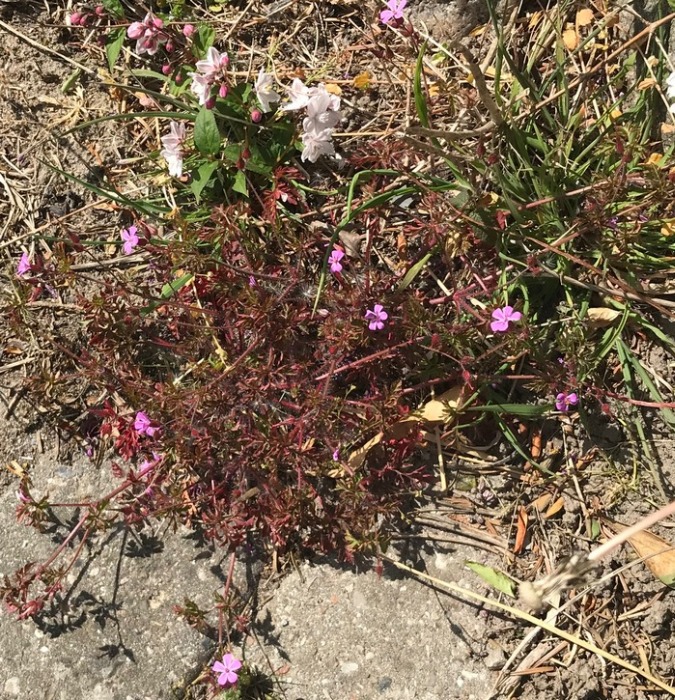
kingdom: Plantae
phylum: Tracheophyta
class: Magnoliopsida
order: Geraniales
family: Geraniaceae
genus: Geranium
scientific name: Geranium robertianum
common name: Stinkende storkenæb
